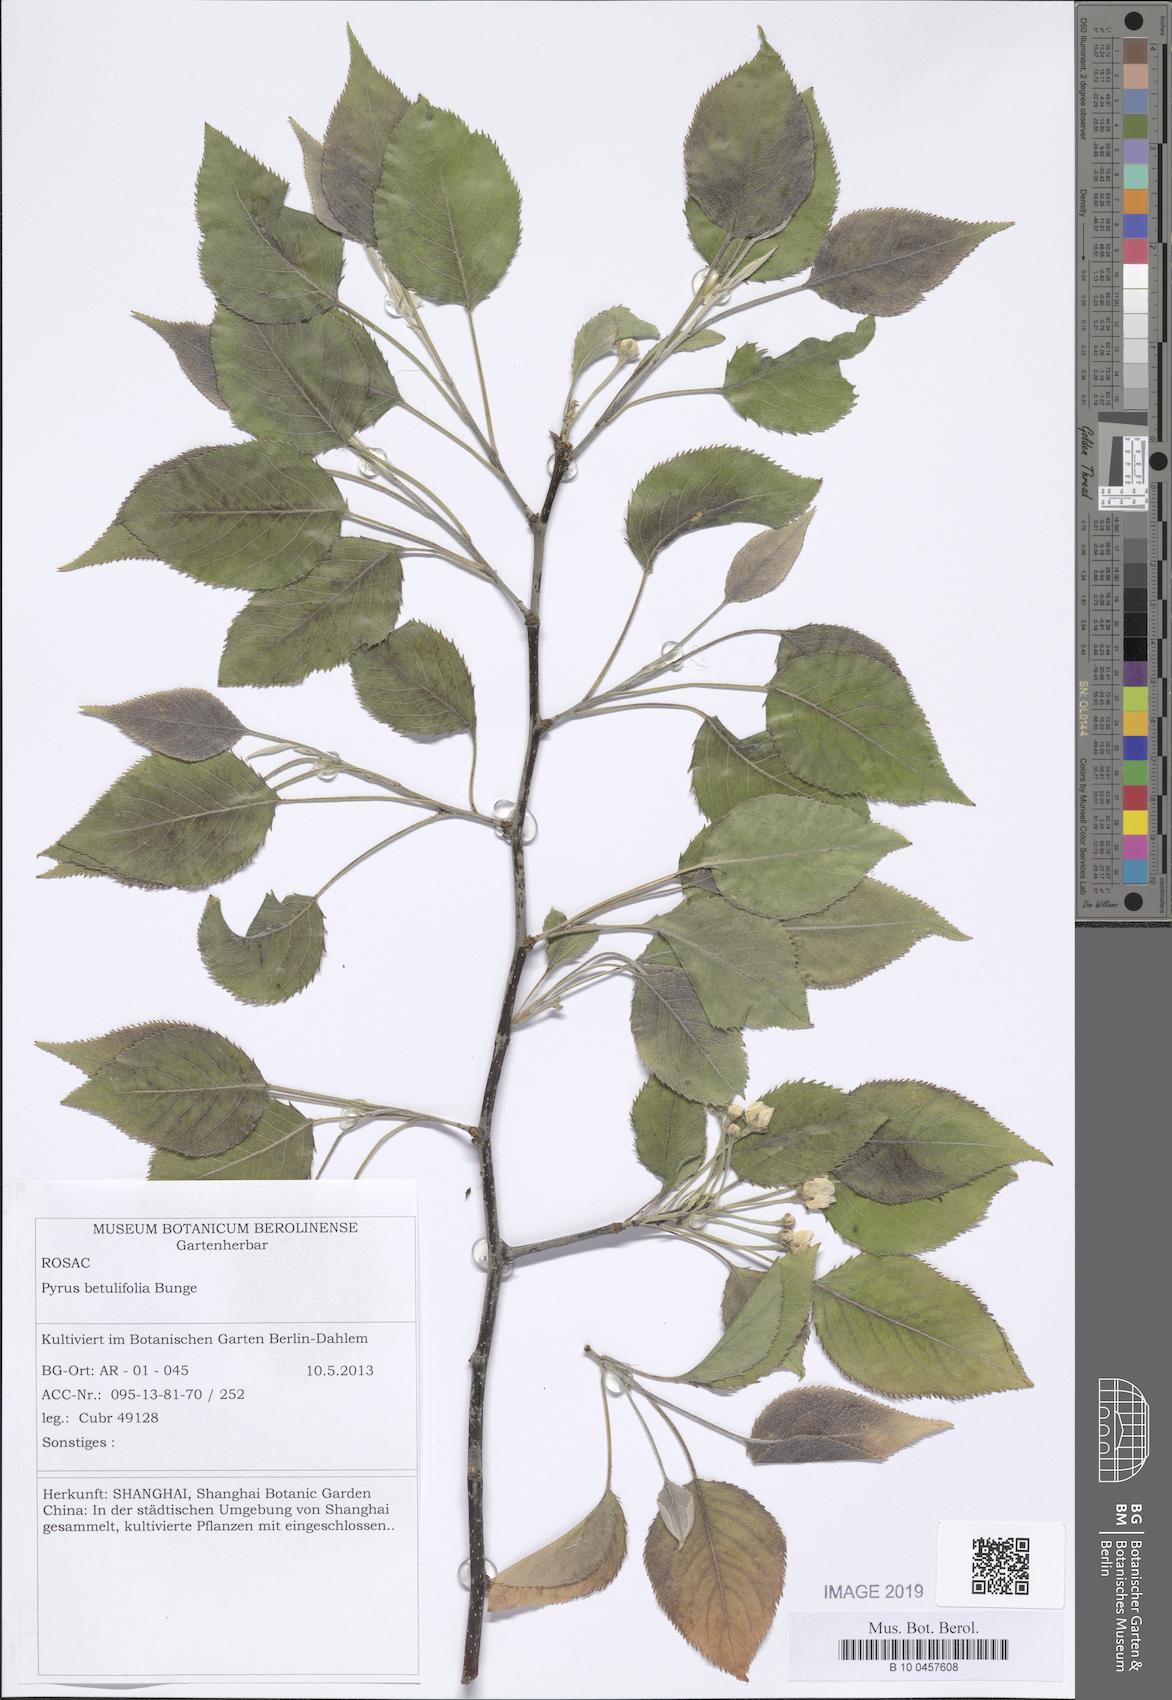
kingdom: Plantae
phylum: Tracheophyta
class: Magnoliopsida
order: Rosales
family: Rosaceae
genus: Pyrus
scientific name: Pyrus betulifolia
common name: Birch-leaf pear
